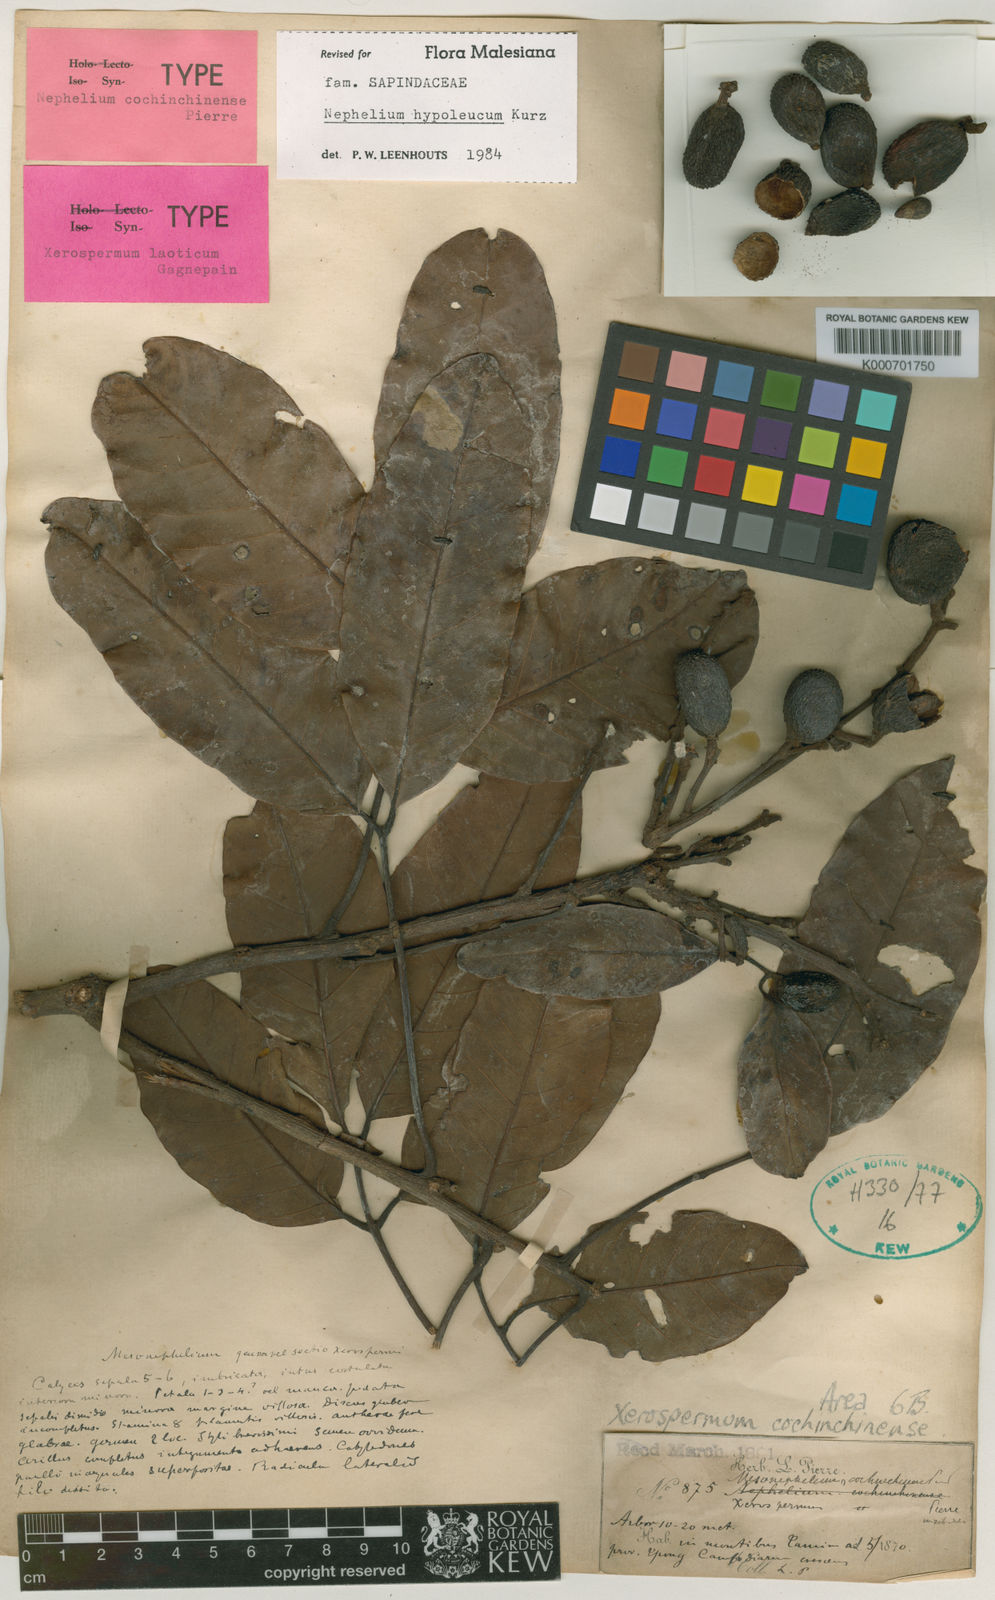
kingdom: Plantae
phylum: Tracheophyta
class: Magnoliopsida
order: Sapindales
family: Sapindaceae
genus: Nephelium
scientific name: Nephelium hypoleucum
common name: Korlan
